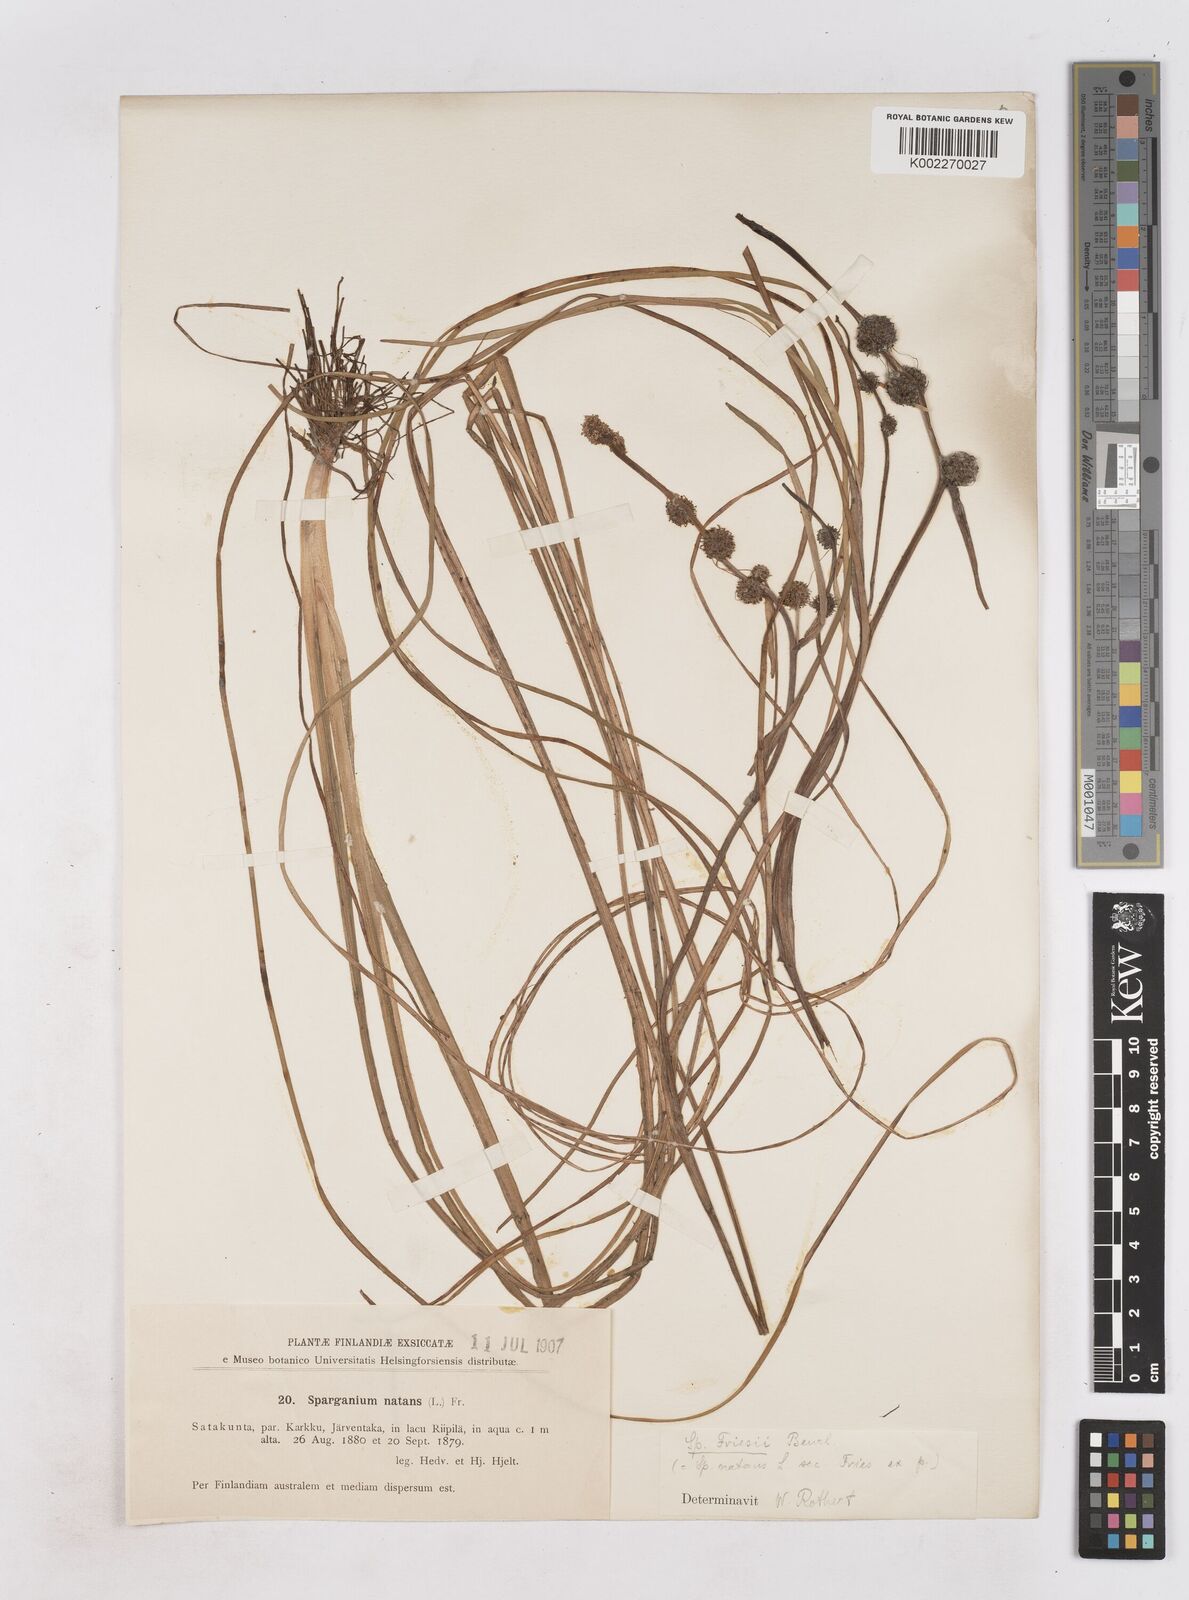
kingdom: Plantae
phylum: Tracheophyta
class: Liliopsida
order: Poales
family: Typhaceae
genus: Sparganium
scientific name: Sparganium gramineum
